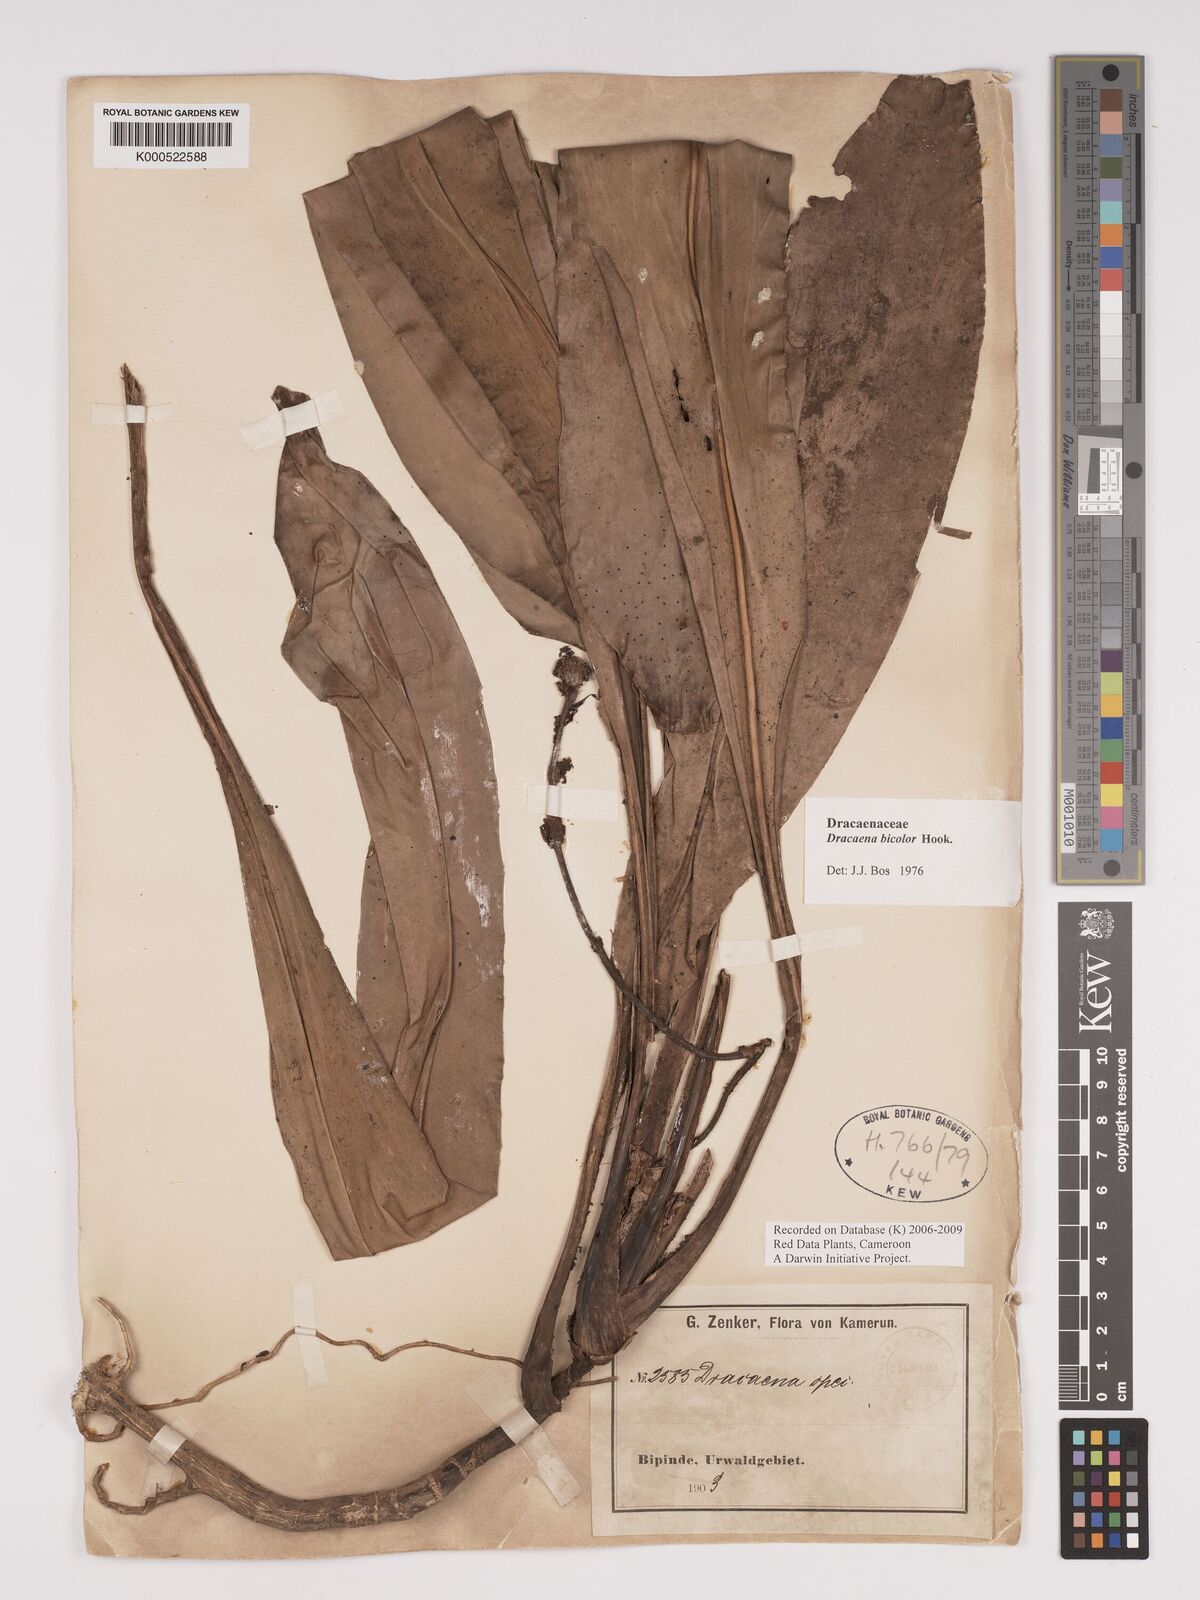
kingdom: Plantae
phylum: Tracheophyta
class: Liliopsida
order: Asparagales
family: Asparagaceae
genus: Dracaena
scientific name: Dracaena bicolor
